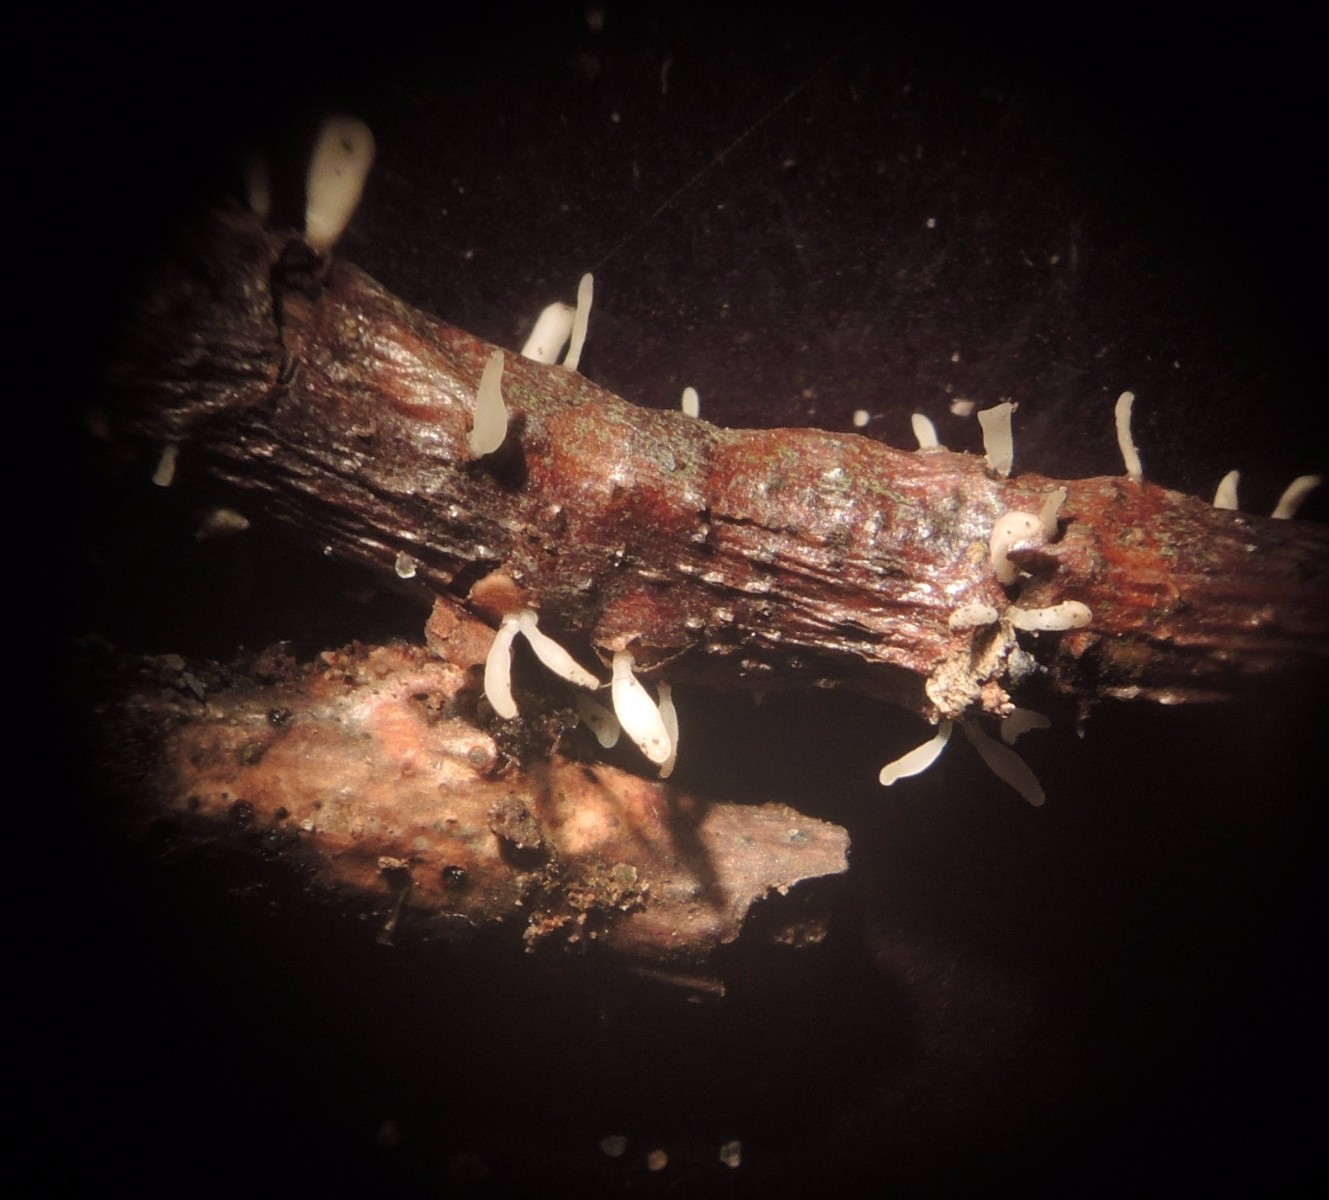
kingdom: Fungi
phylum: Basidiomycota
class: Agaricomycetes
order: Agaricales
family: Typhulaceae
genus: Typhula
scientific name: Typhula spathulata
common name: aske-trådkølle
